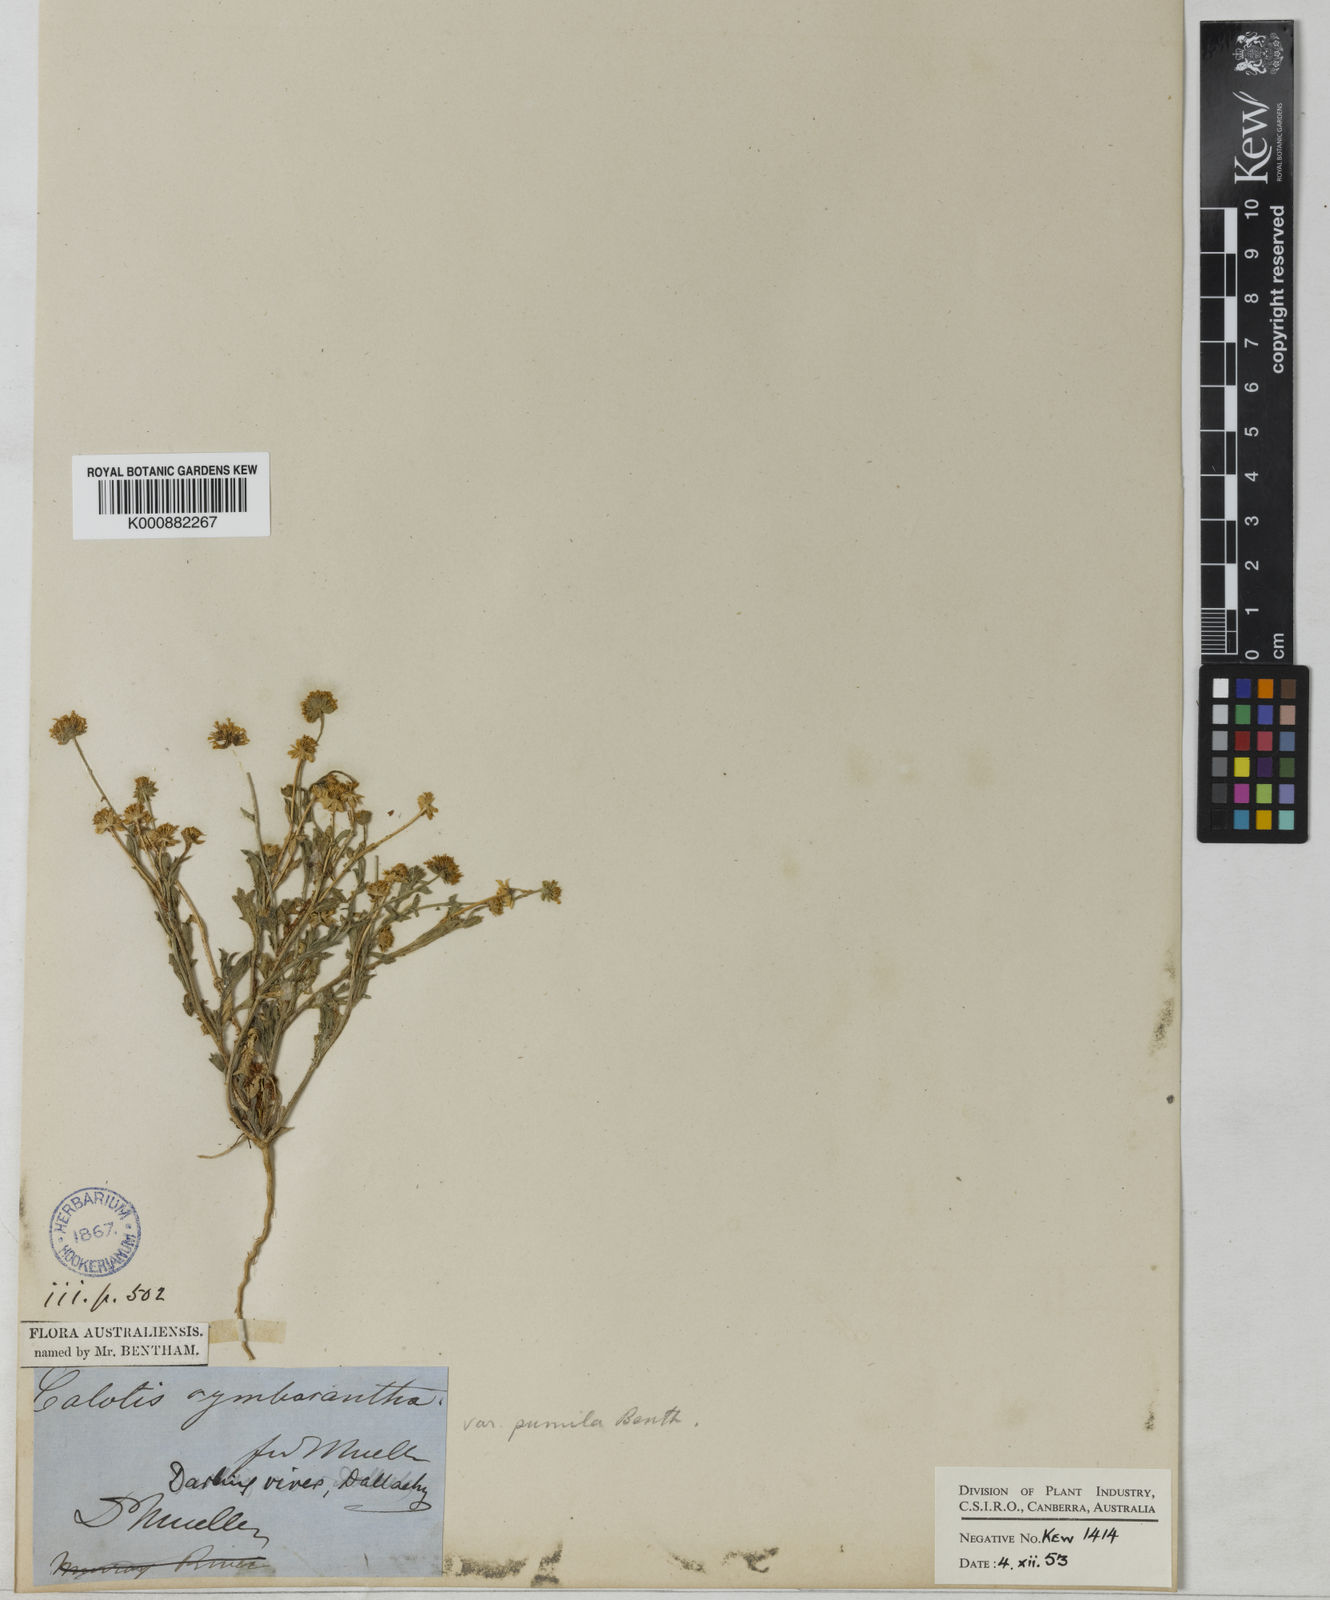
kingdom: Plantae
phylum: Tracheophyta
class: Magnoliopsida
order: Asterales
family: Asteraceae
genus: Calotis
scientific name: Calotis cymbacantha
